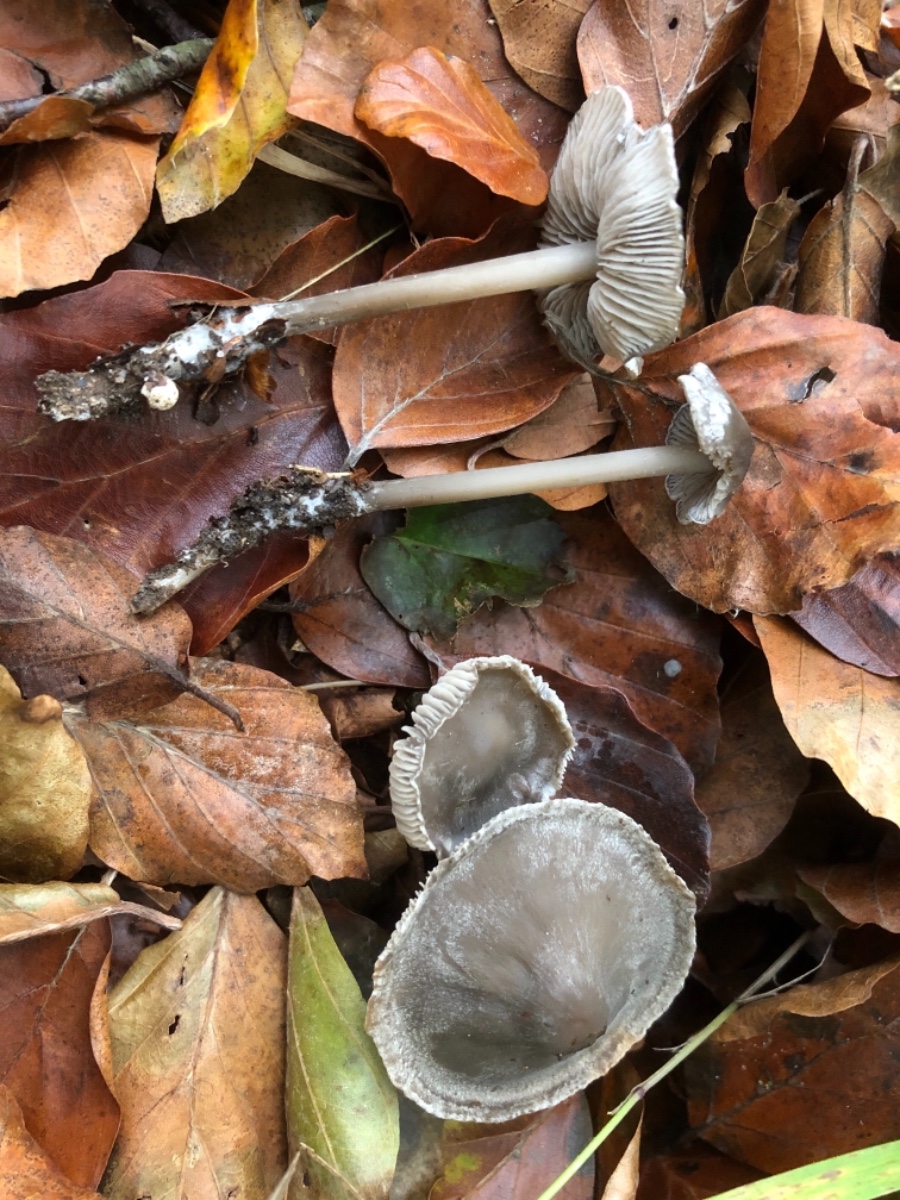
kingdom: Fungi
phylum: Basidiomycota
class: Agaricomycetes
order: Agaricales
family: Lyophyllaceae
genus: Tephrocybe
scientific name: Tephrocybe rancida
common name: mel-gråblad
